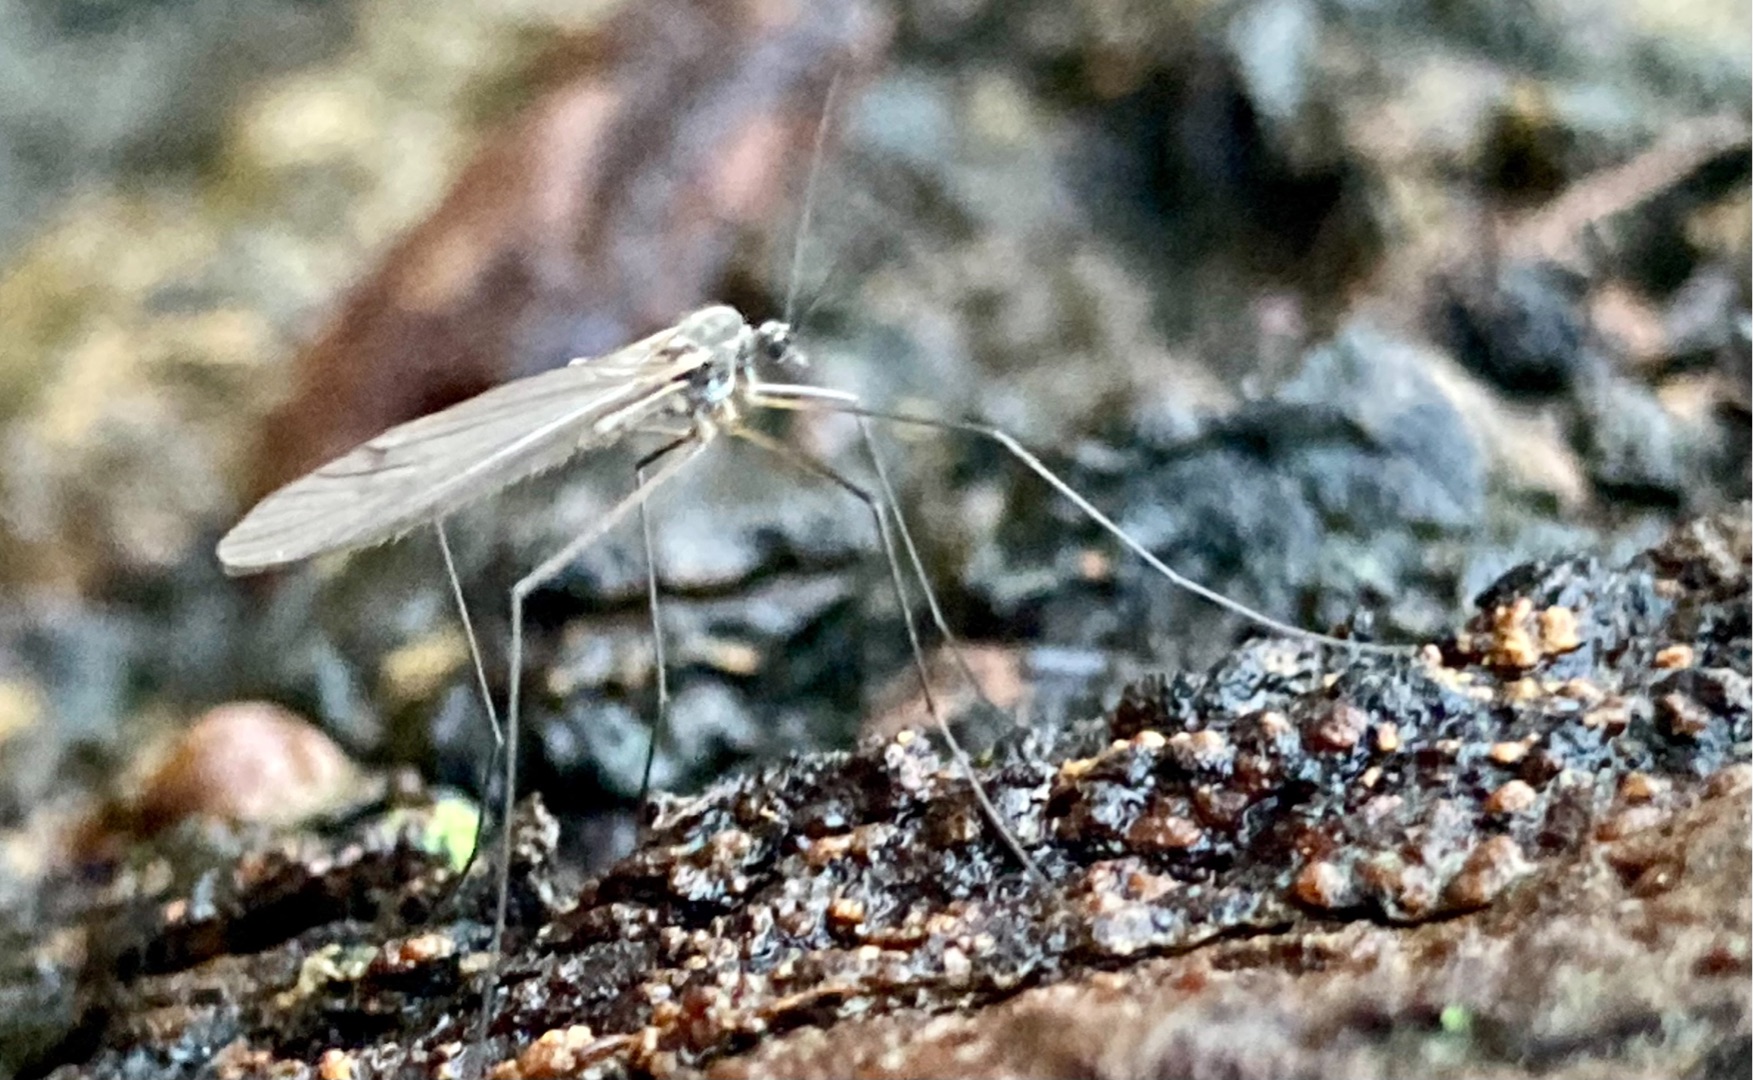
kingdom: Animalia
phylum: Arthropoda
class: Insecta
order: Diptera
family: Trichoceridae
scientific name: Trichoceridae
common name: Vintermyg
